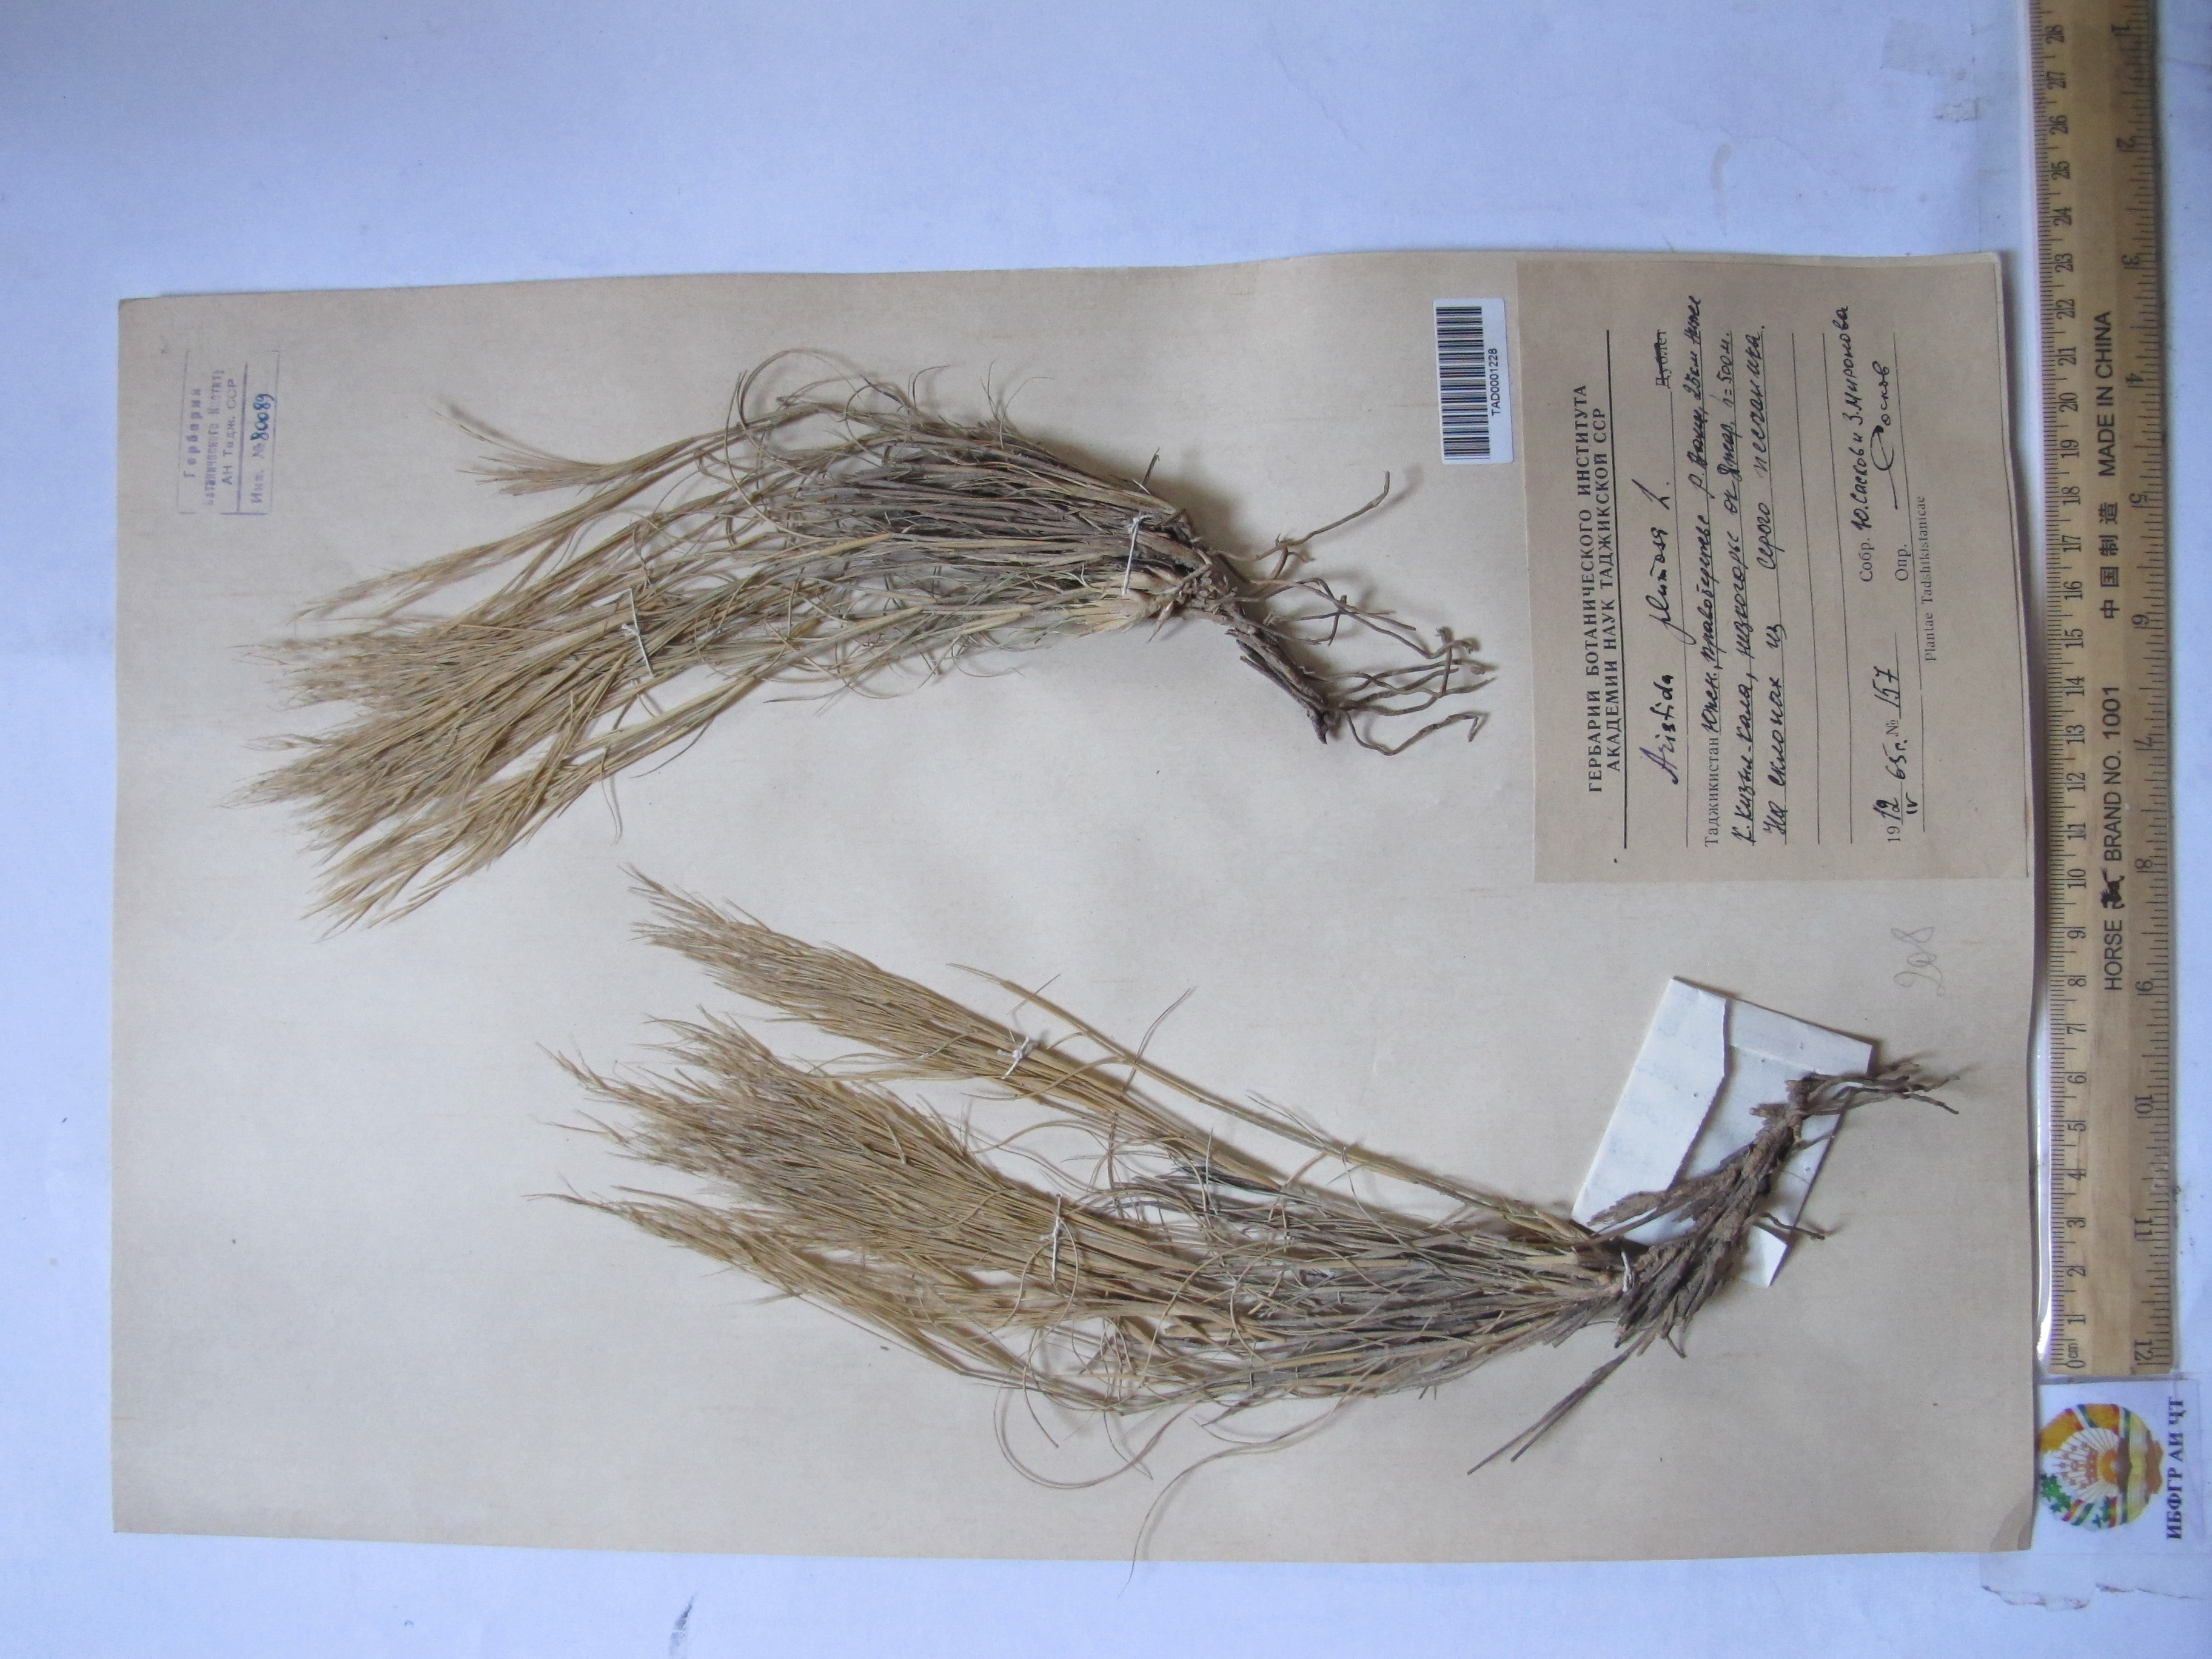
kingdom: Plantae
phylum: Tracheophyta
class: Liliopsida
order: Poales
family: Poaceae
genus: Stipagrostis
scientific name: Stipagrostis plumosa
